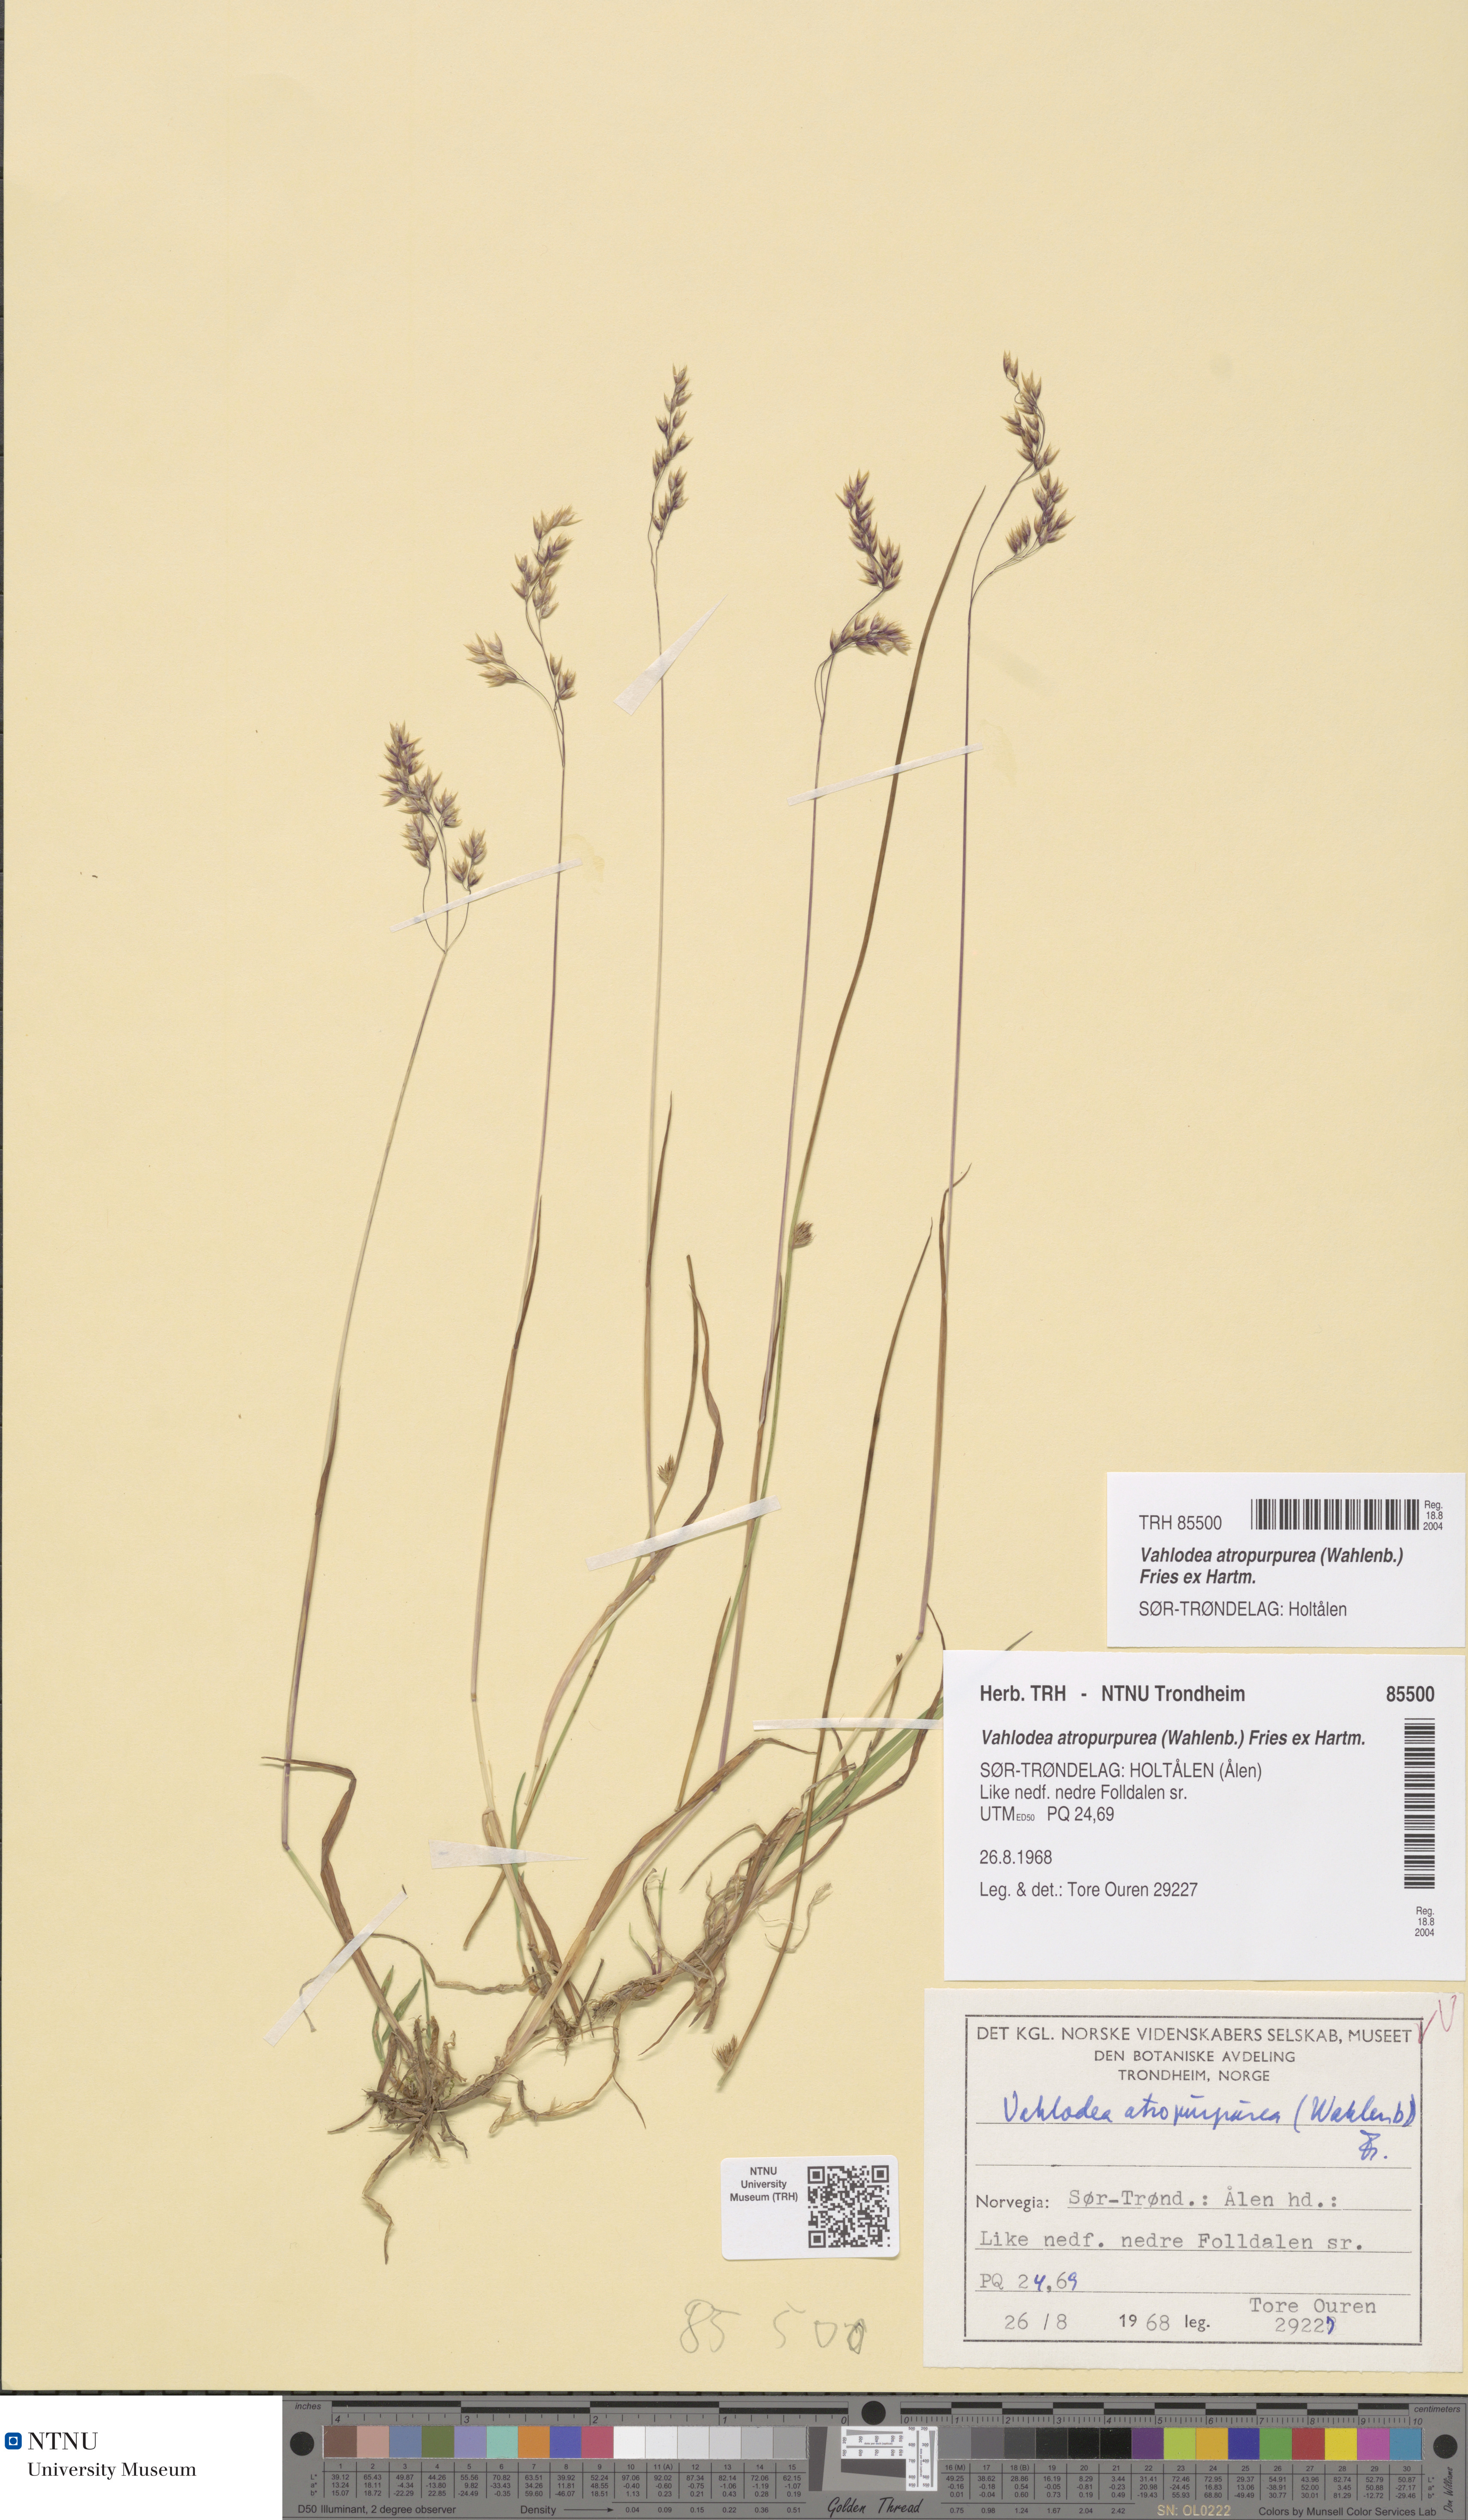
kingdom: Plantae
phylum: Tracheophyta
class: Liliopsida
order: Poales
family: Poaceae
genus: Vahlodea
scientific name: Vahlodea atropurpurea
